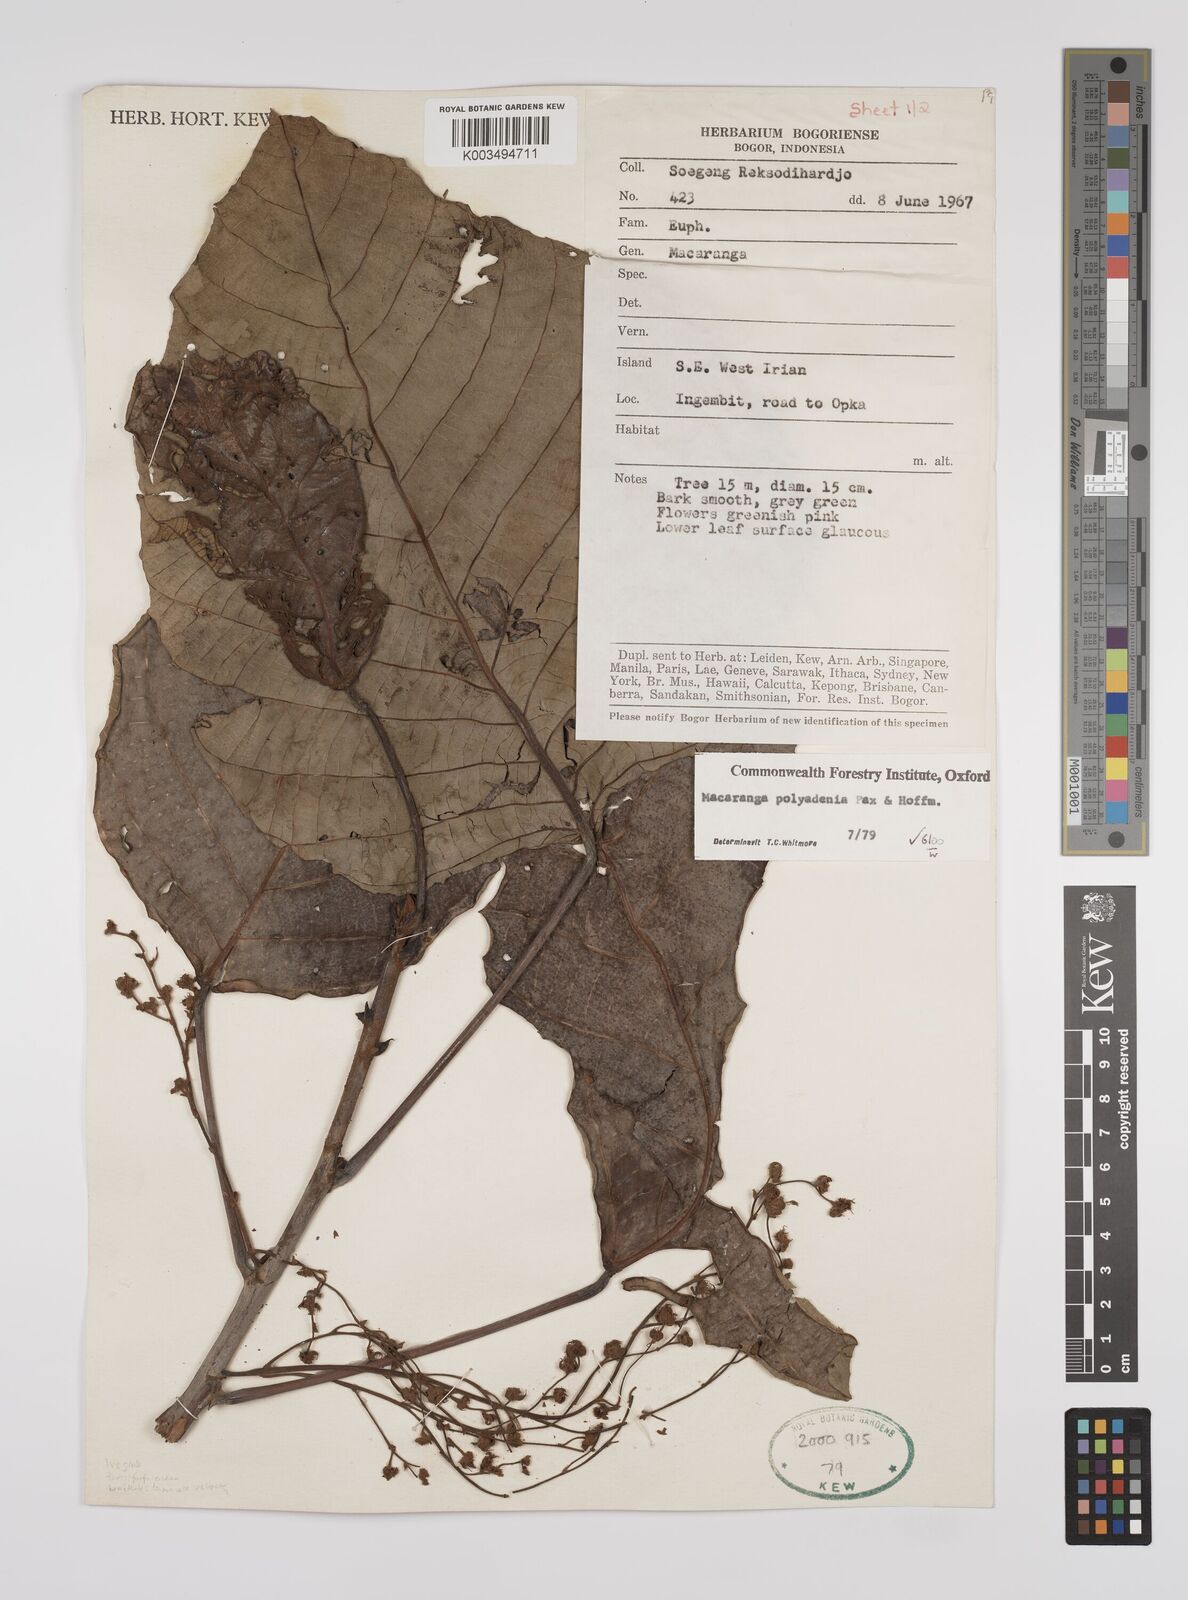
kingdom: Plantae
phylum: Tracheophyta
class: Magnoliopsida
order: Malpighiales
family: Euphorbiaceae
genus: Macaranga
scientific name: Macaranga polyadenia
